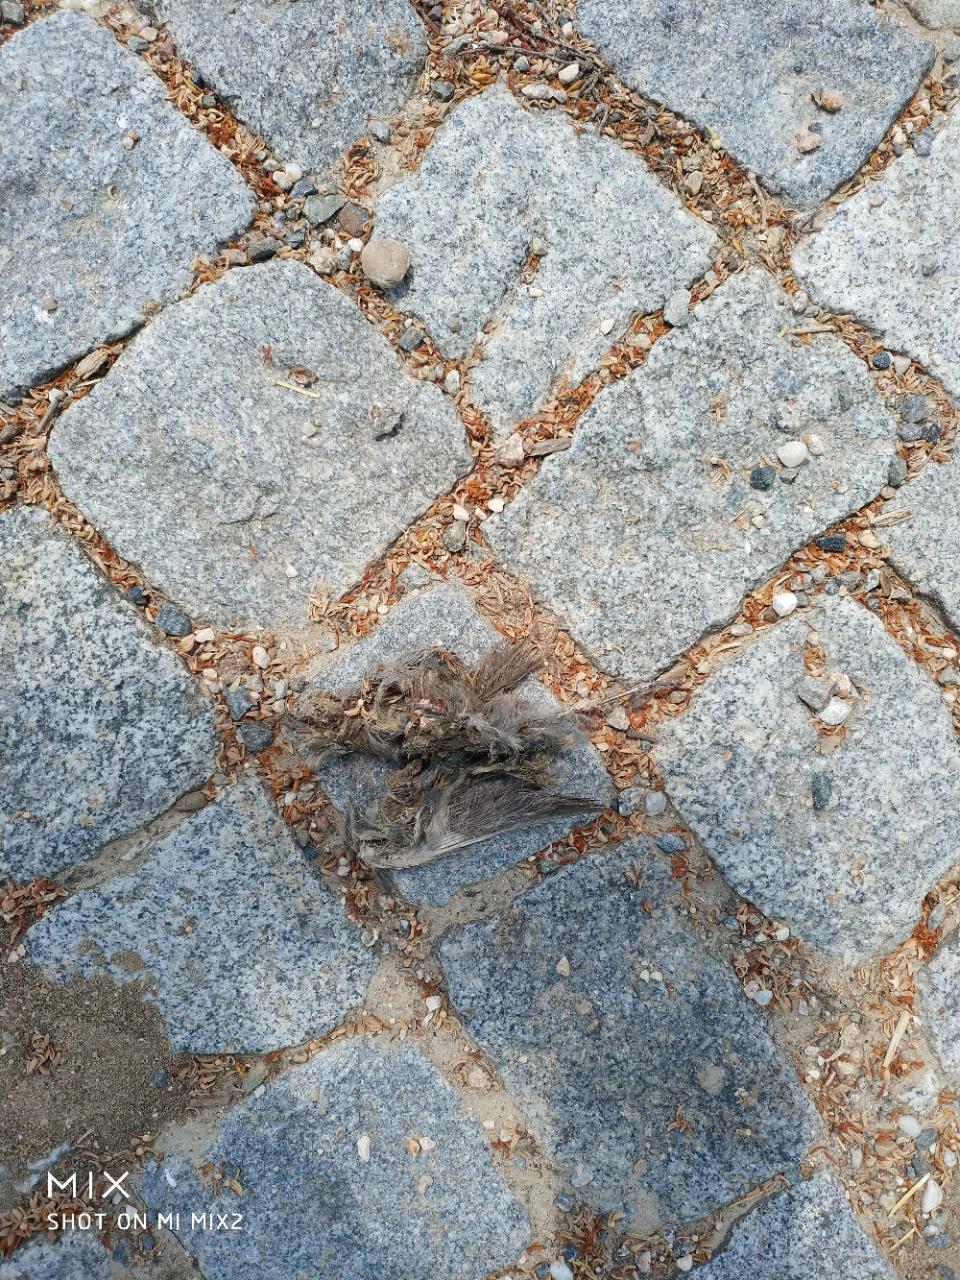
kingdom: Animalia
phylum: Chordata
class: Aves
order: Passeriformes
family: Passeridae
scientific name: Passeridae
